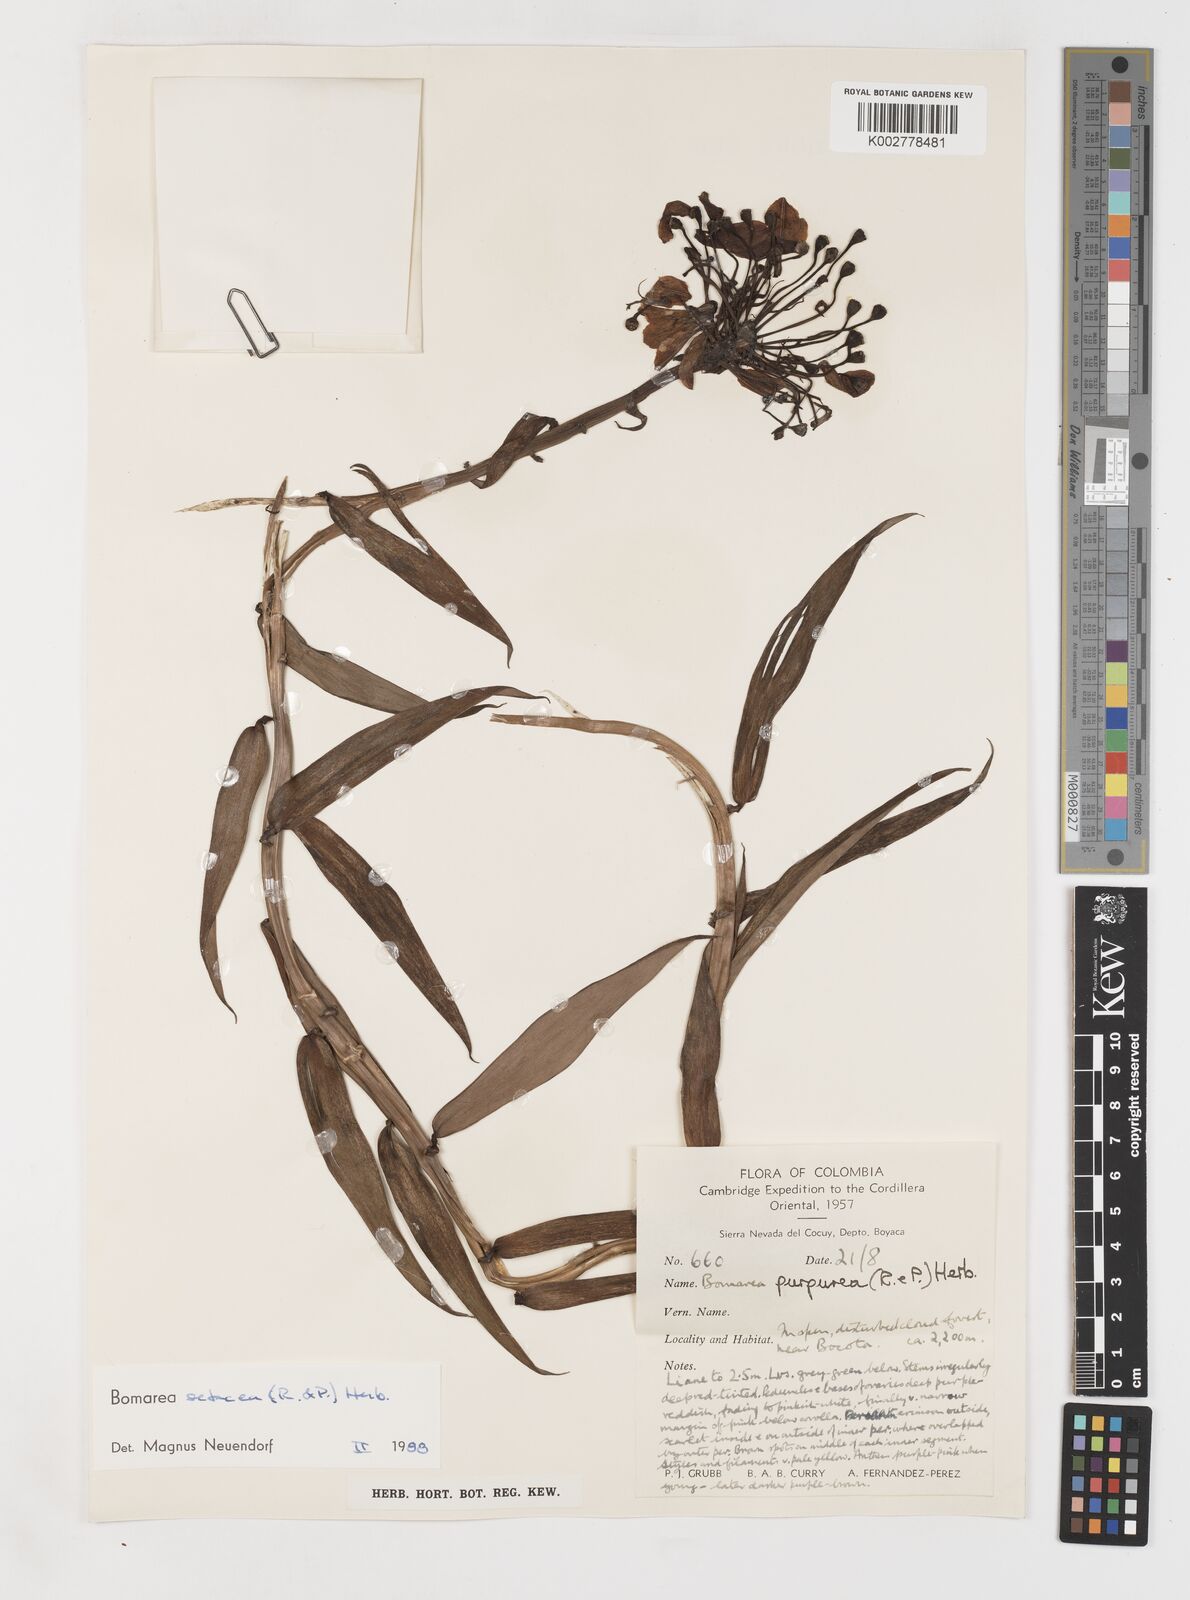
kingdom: Plantae
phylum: Tracheophyta
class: Liliopsida
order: Liliales
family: Alstroemeriaceae
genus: Bomarea
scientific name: Bomarea setacea
